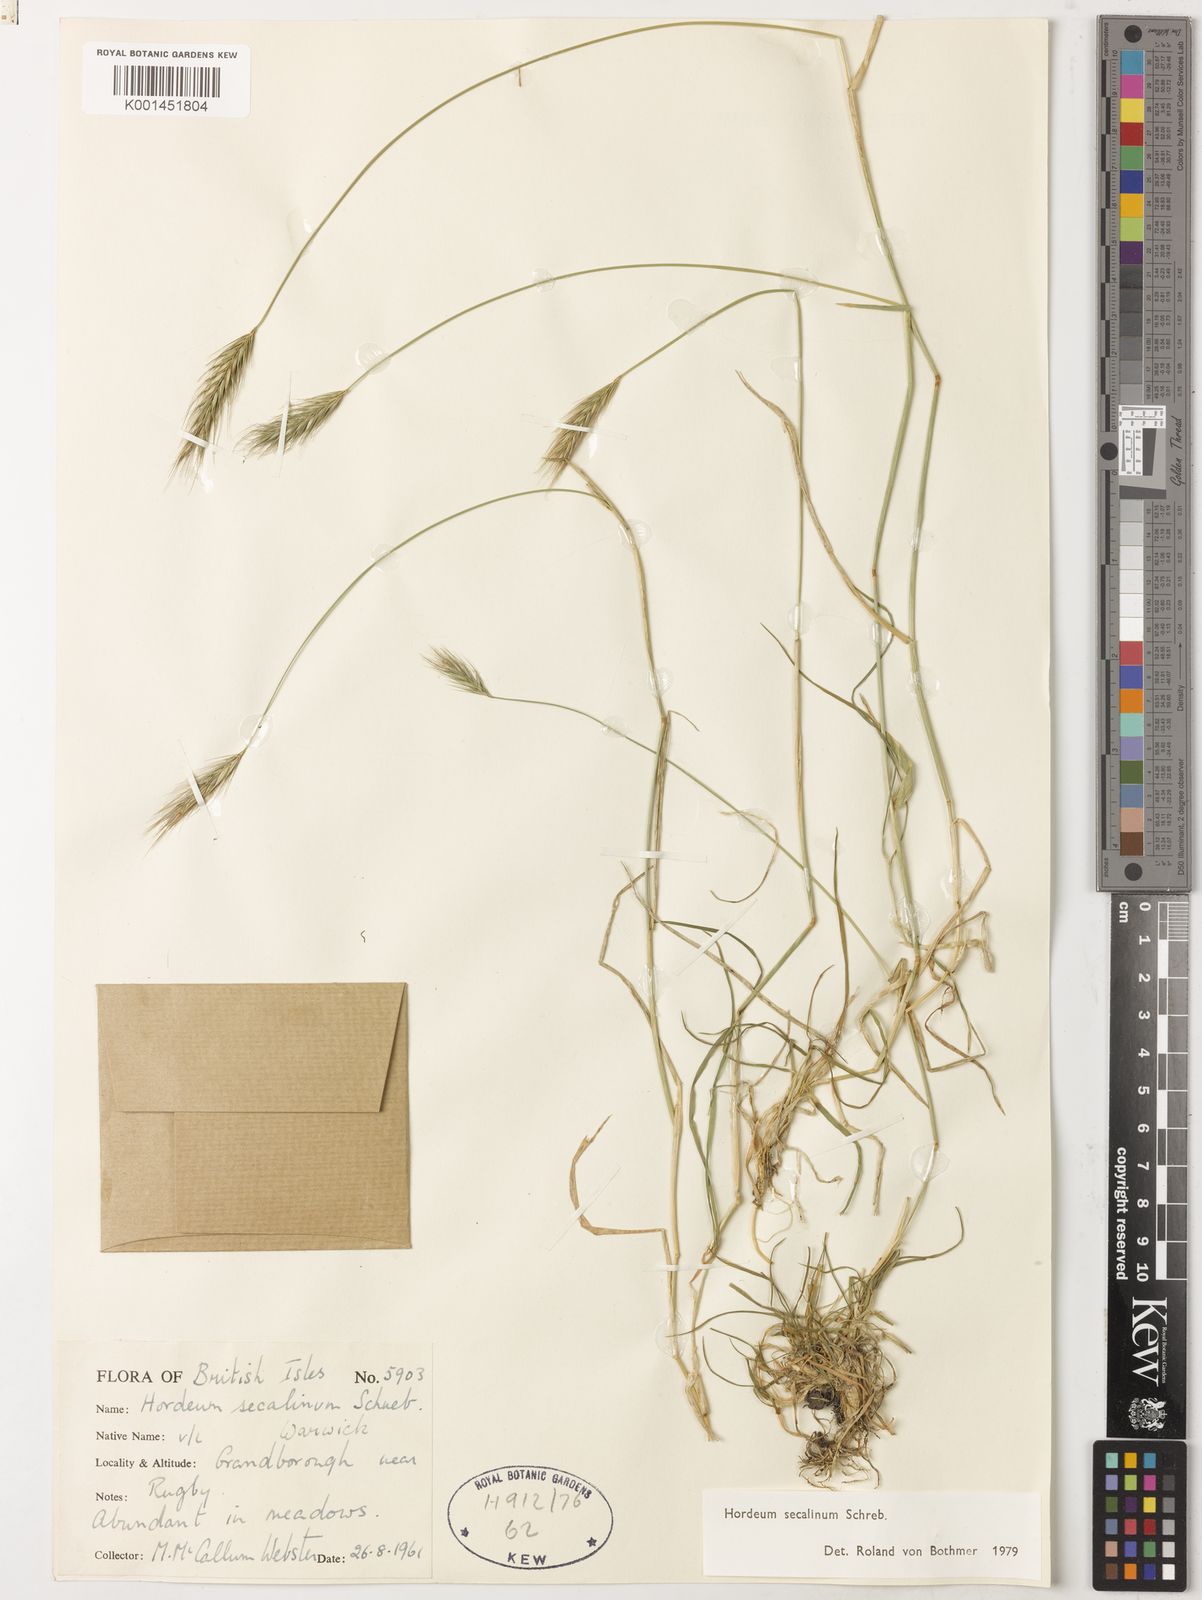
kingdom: Plantae
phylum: Tracheophyta
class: Liliopsida
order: Poales
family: Poaceae
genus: Hordeum
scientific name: Hordeum secalinum
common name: Meadow barley
